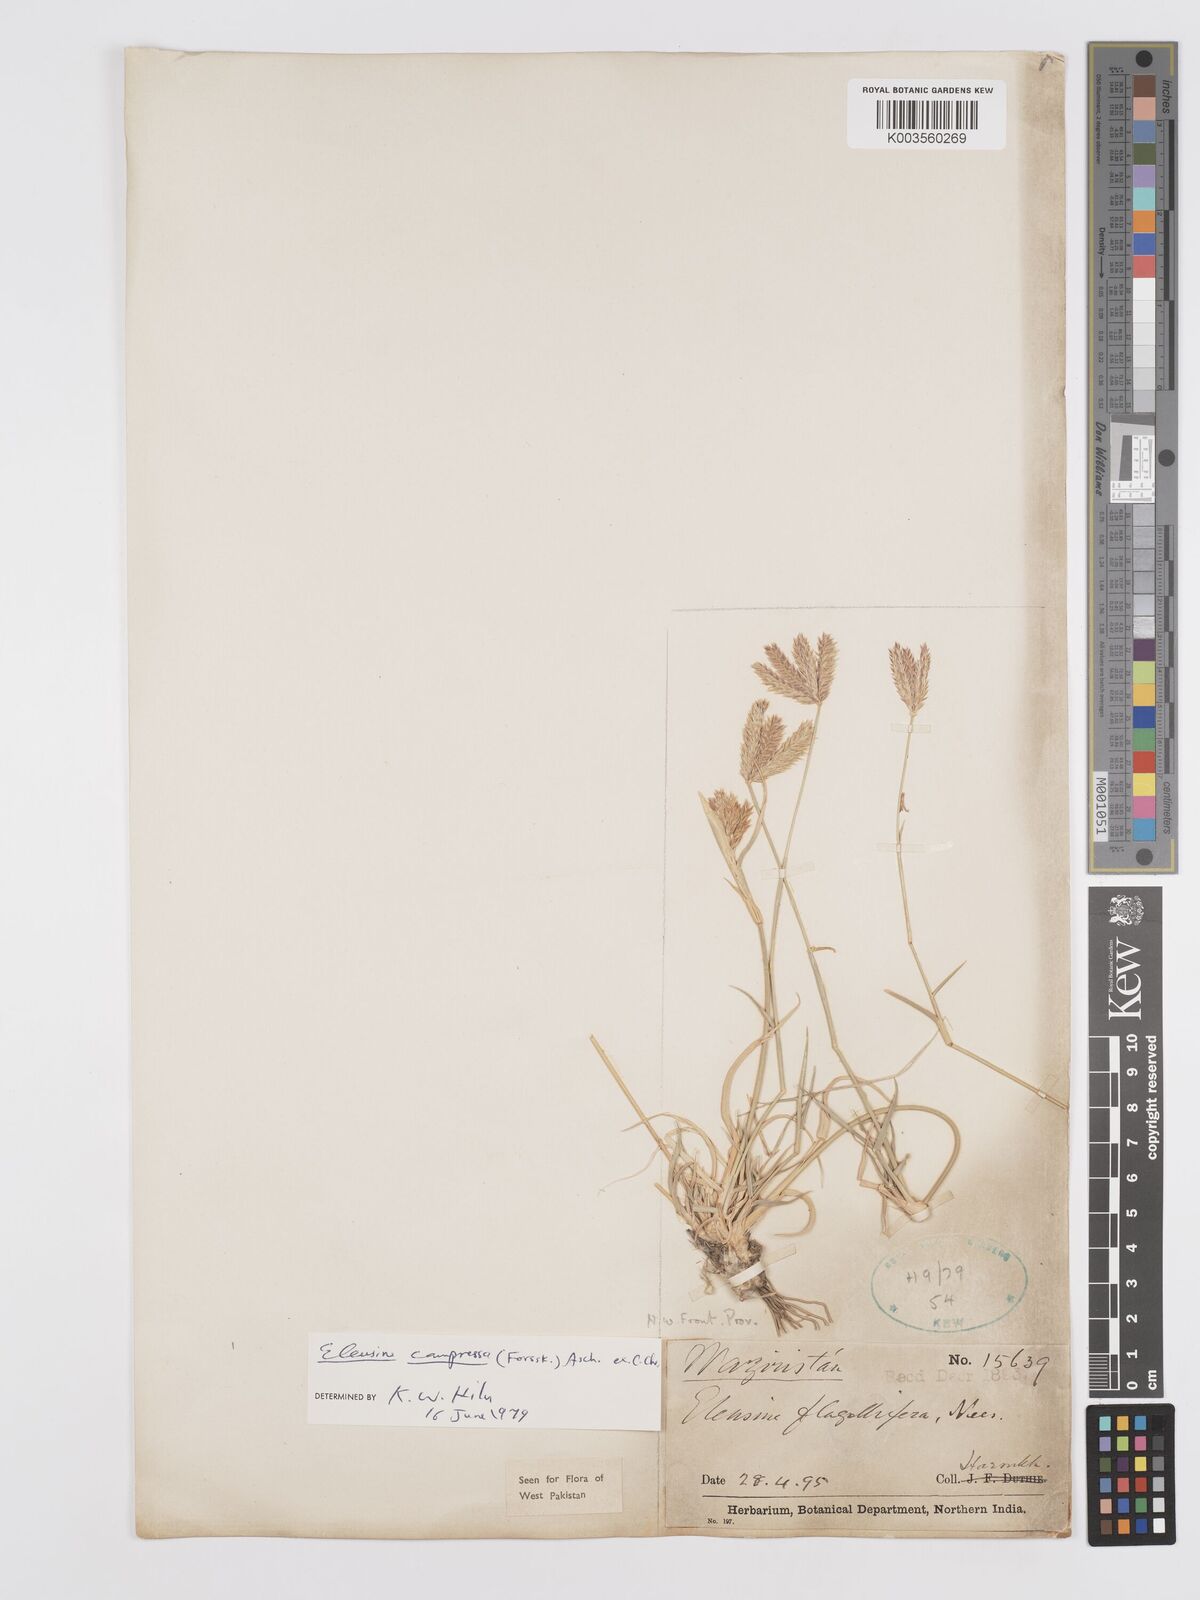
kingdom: Plantae
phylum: Tracheophyta
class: Liliopsida
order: Poales
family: Poaceae
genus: Chloris
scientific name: Chloris flagellifera
